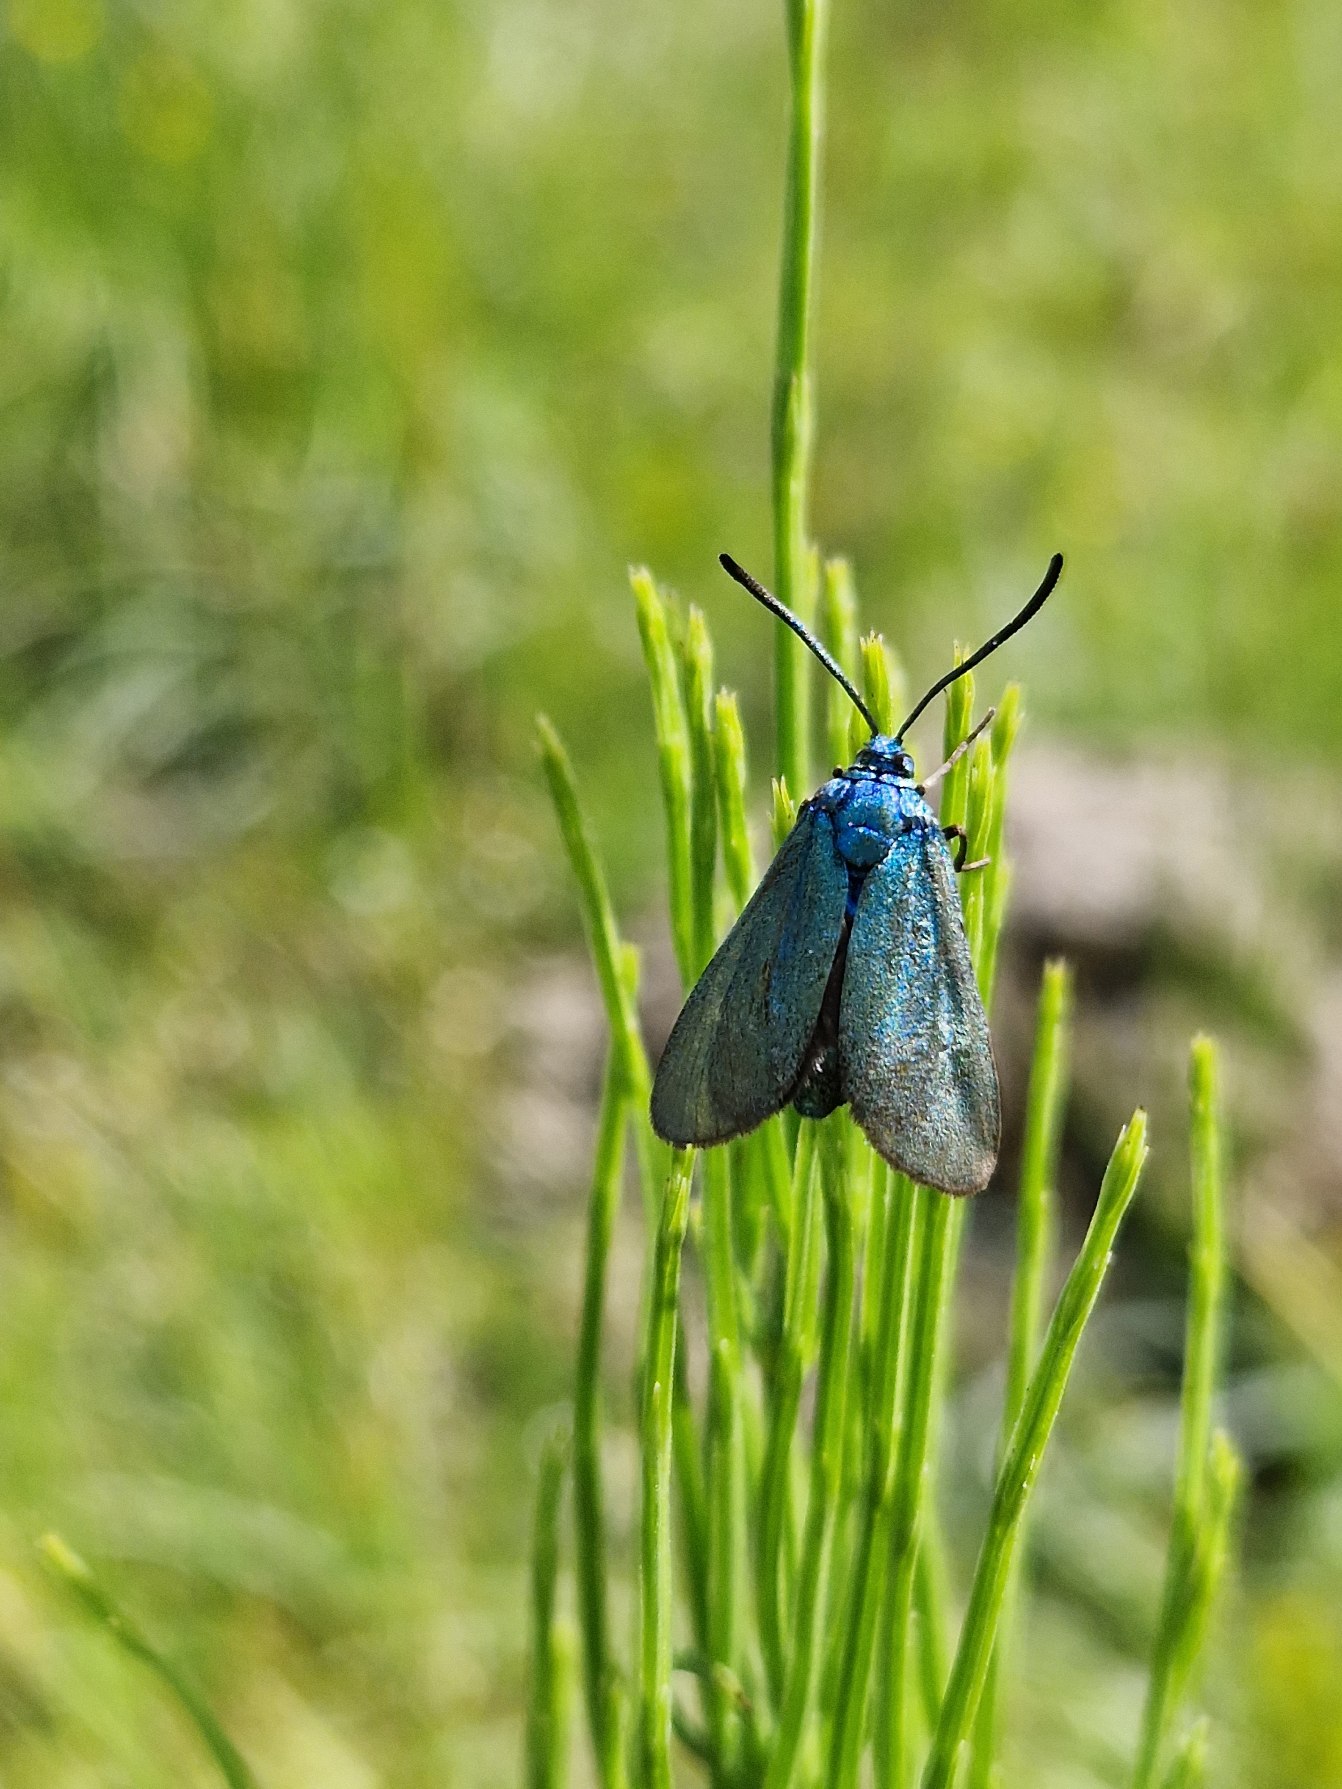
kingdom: Animalia
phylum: Arthropoda
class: Insecta
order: Lepidoptera
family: Zygaenidae
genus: Adscita
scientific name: Adscita statices
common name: Metalvinge
